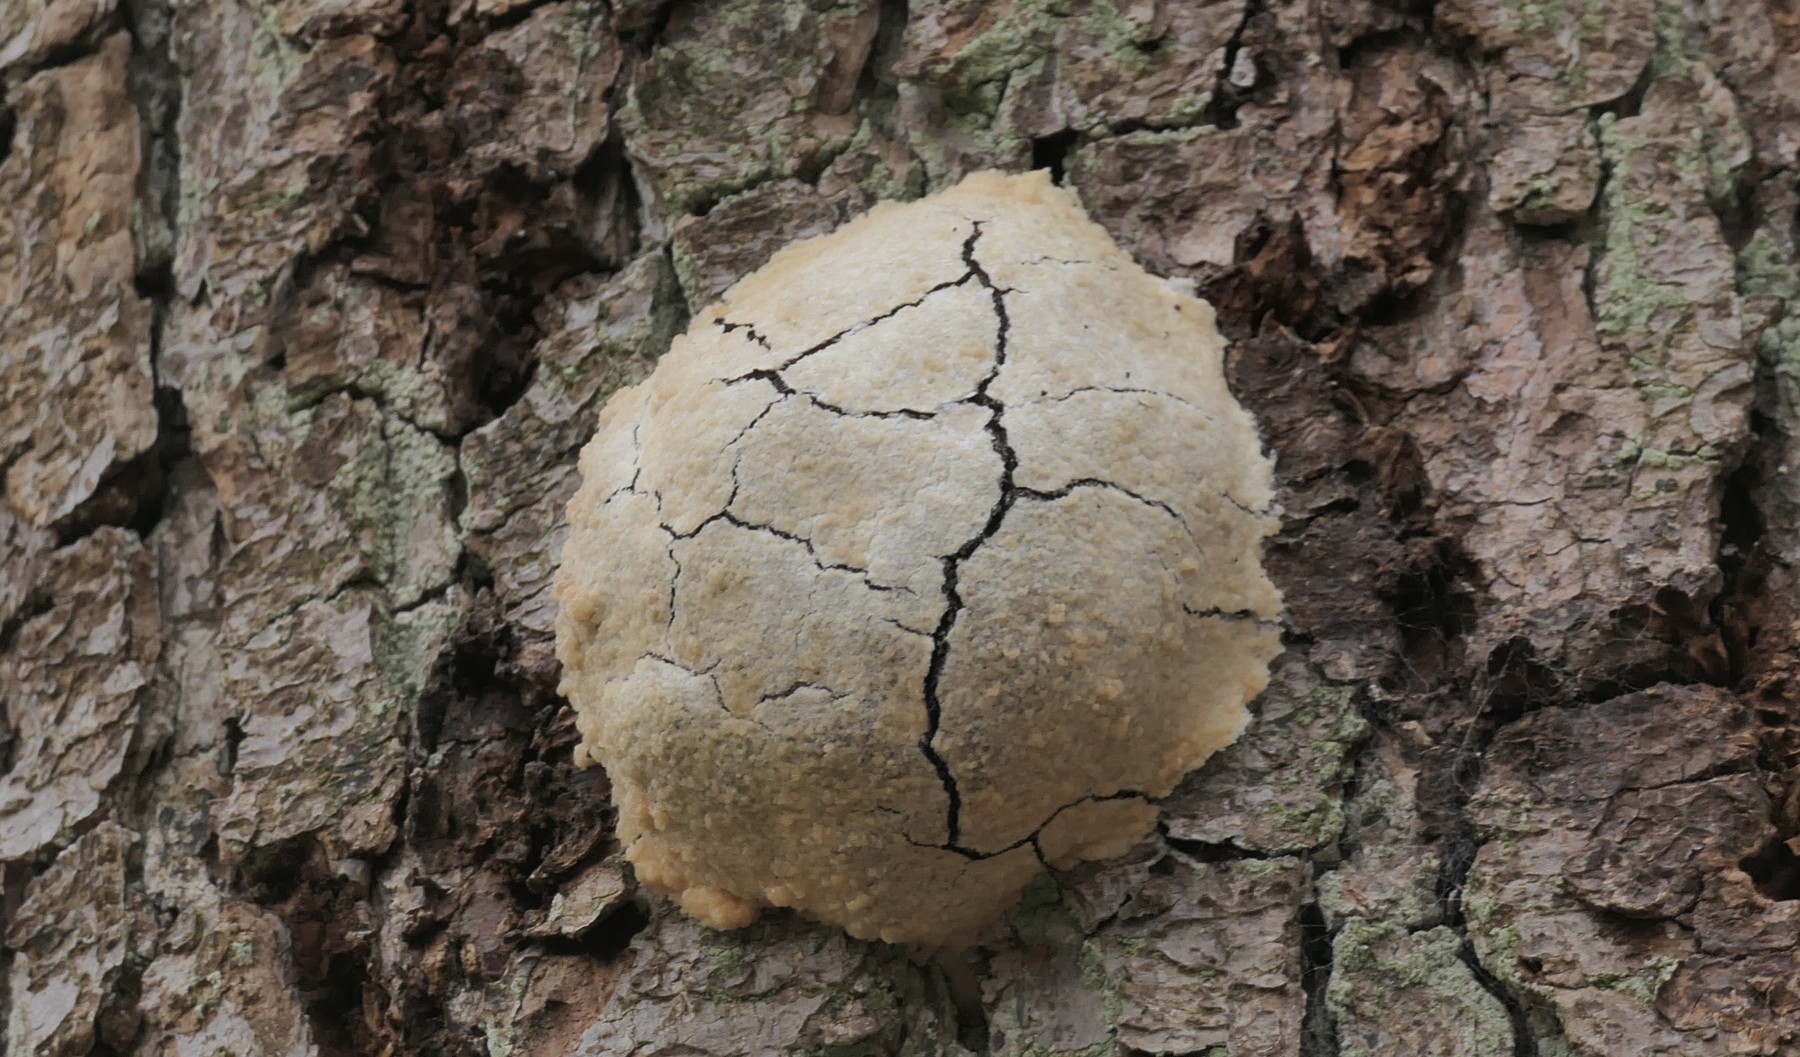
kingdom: Protozoa
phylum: Mycetozoa
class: Myxomycetes
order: Cribrariales
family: Tubiferaceae
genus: Reticularia
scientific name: Reticularia lycoperdon
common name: skinnende støvpude
